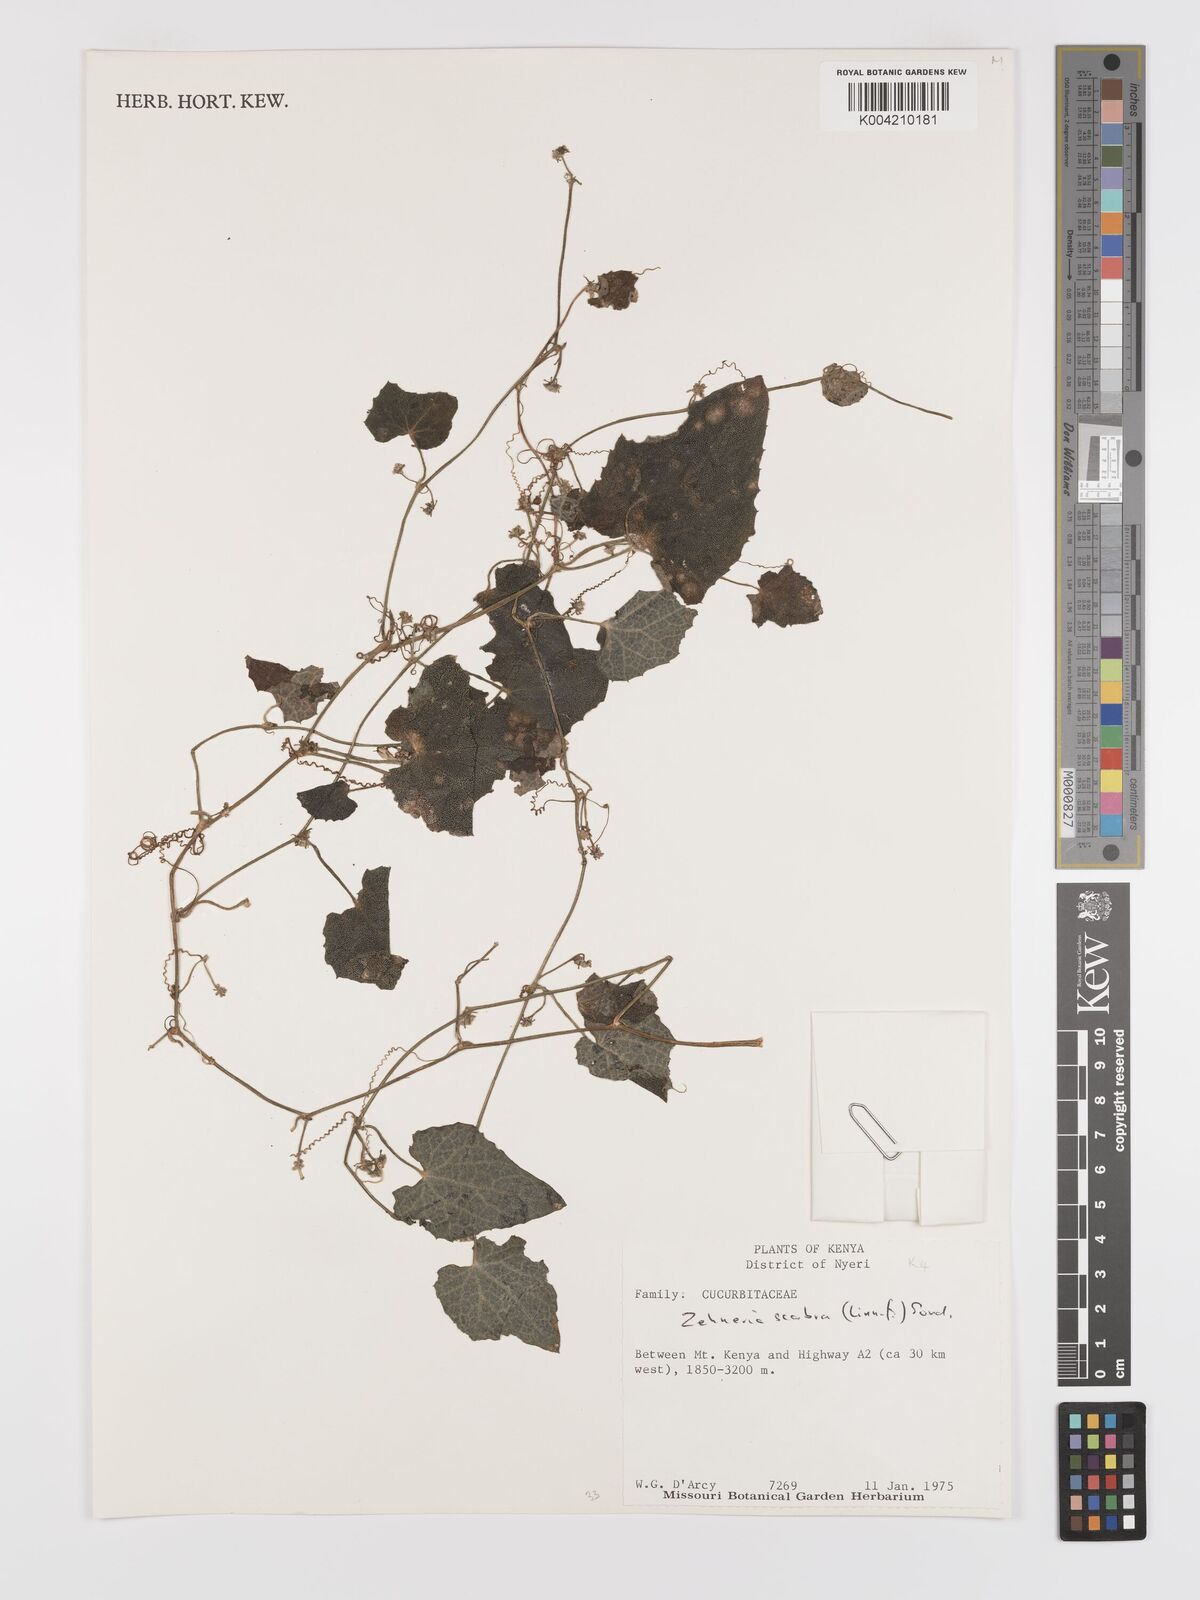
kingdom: Plantae
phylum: Tracheophyta
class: Magnoliopsida
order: Cucurbitales
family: Cucurbitaceae
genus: Zehneria
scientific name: Zehneria scabra
